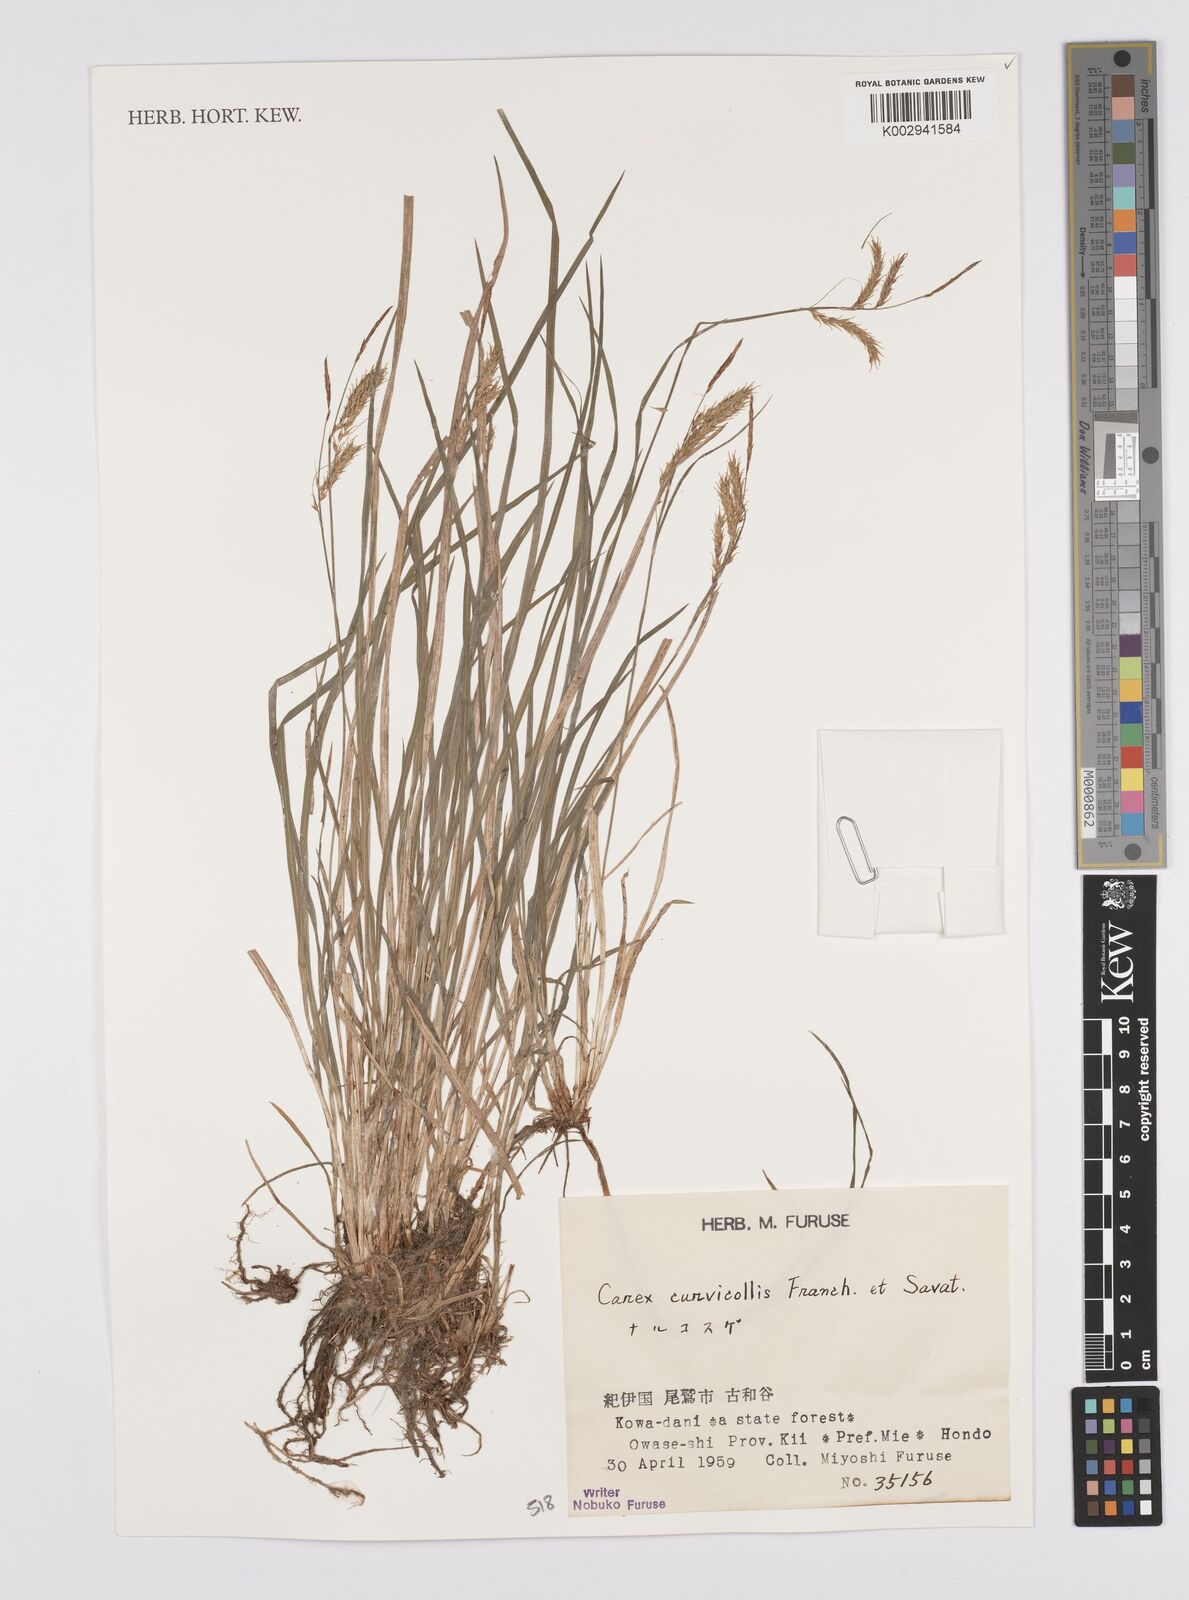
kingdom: Plantae
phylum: Tracheophyta
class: Liliopsida
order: Poales
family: Cyperaceae
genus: Carex
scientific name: Carex curvicollis
